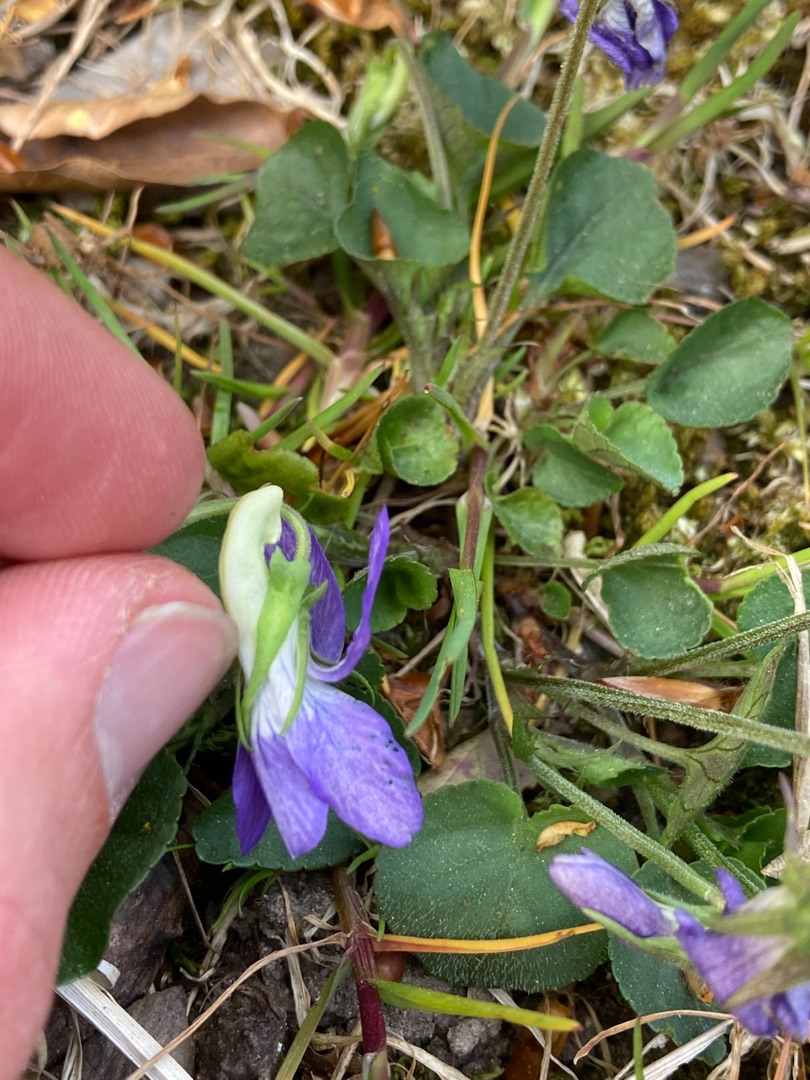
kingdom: Plantae
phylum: Tracheophyta
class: Magnoliopsida
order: Malpighiales
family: Violaceae
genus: Viola
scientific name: Viola riviniana
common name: Krat-viol
